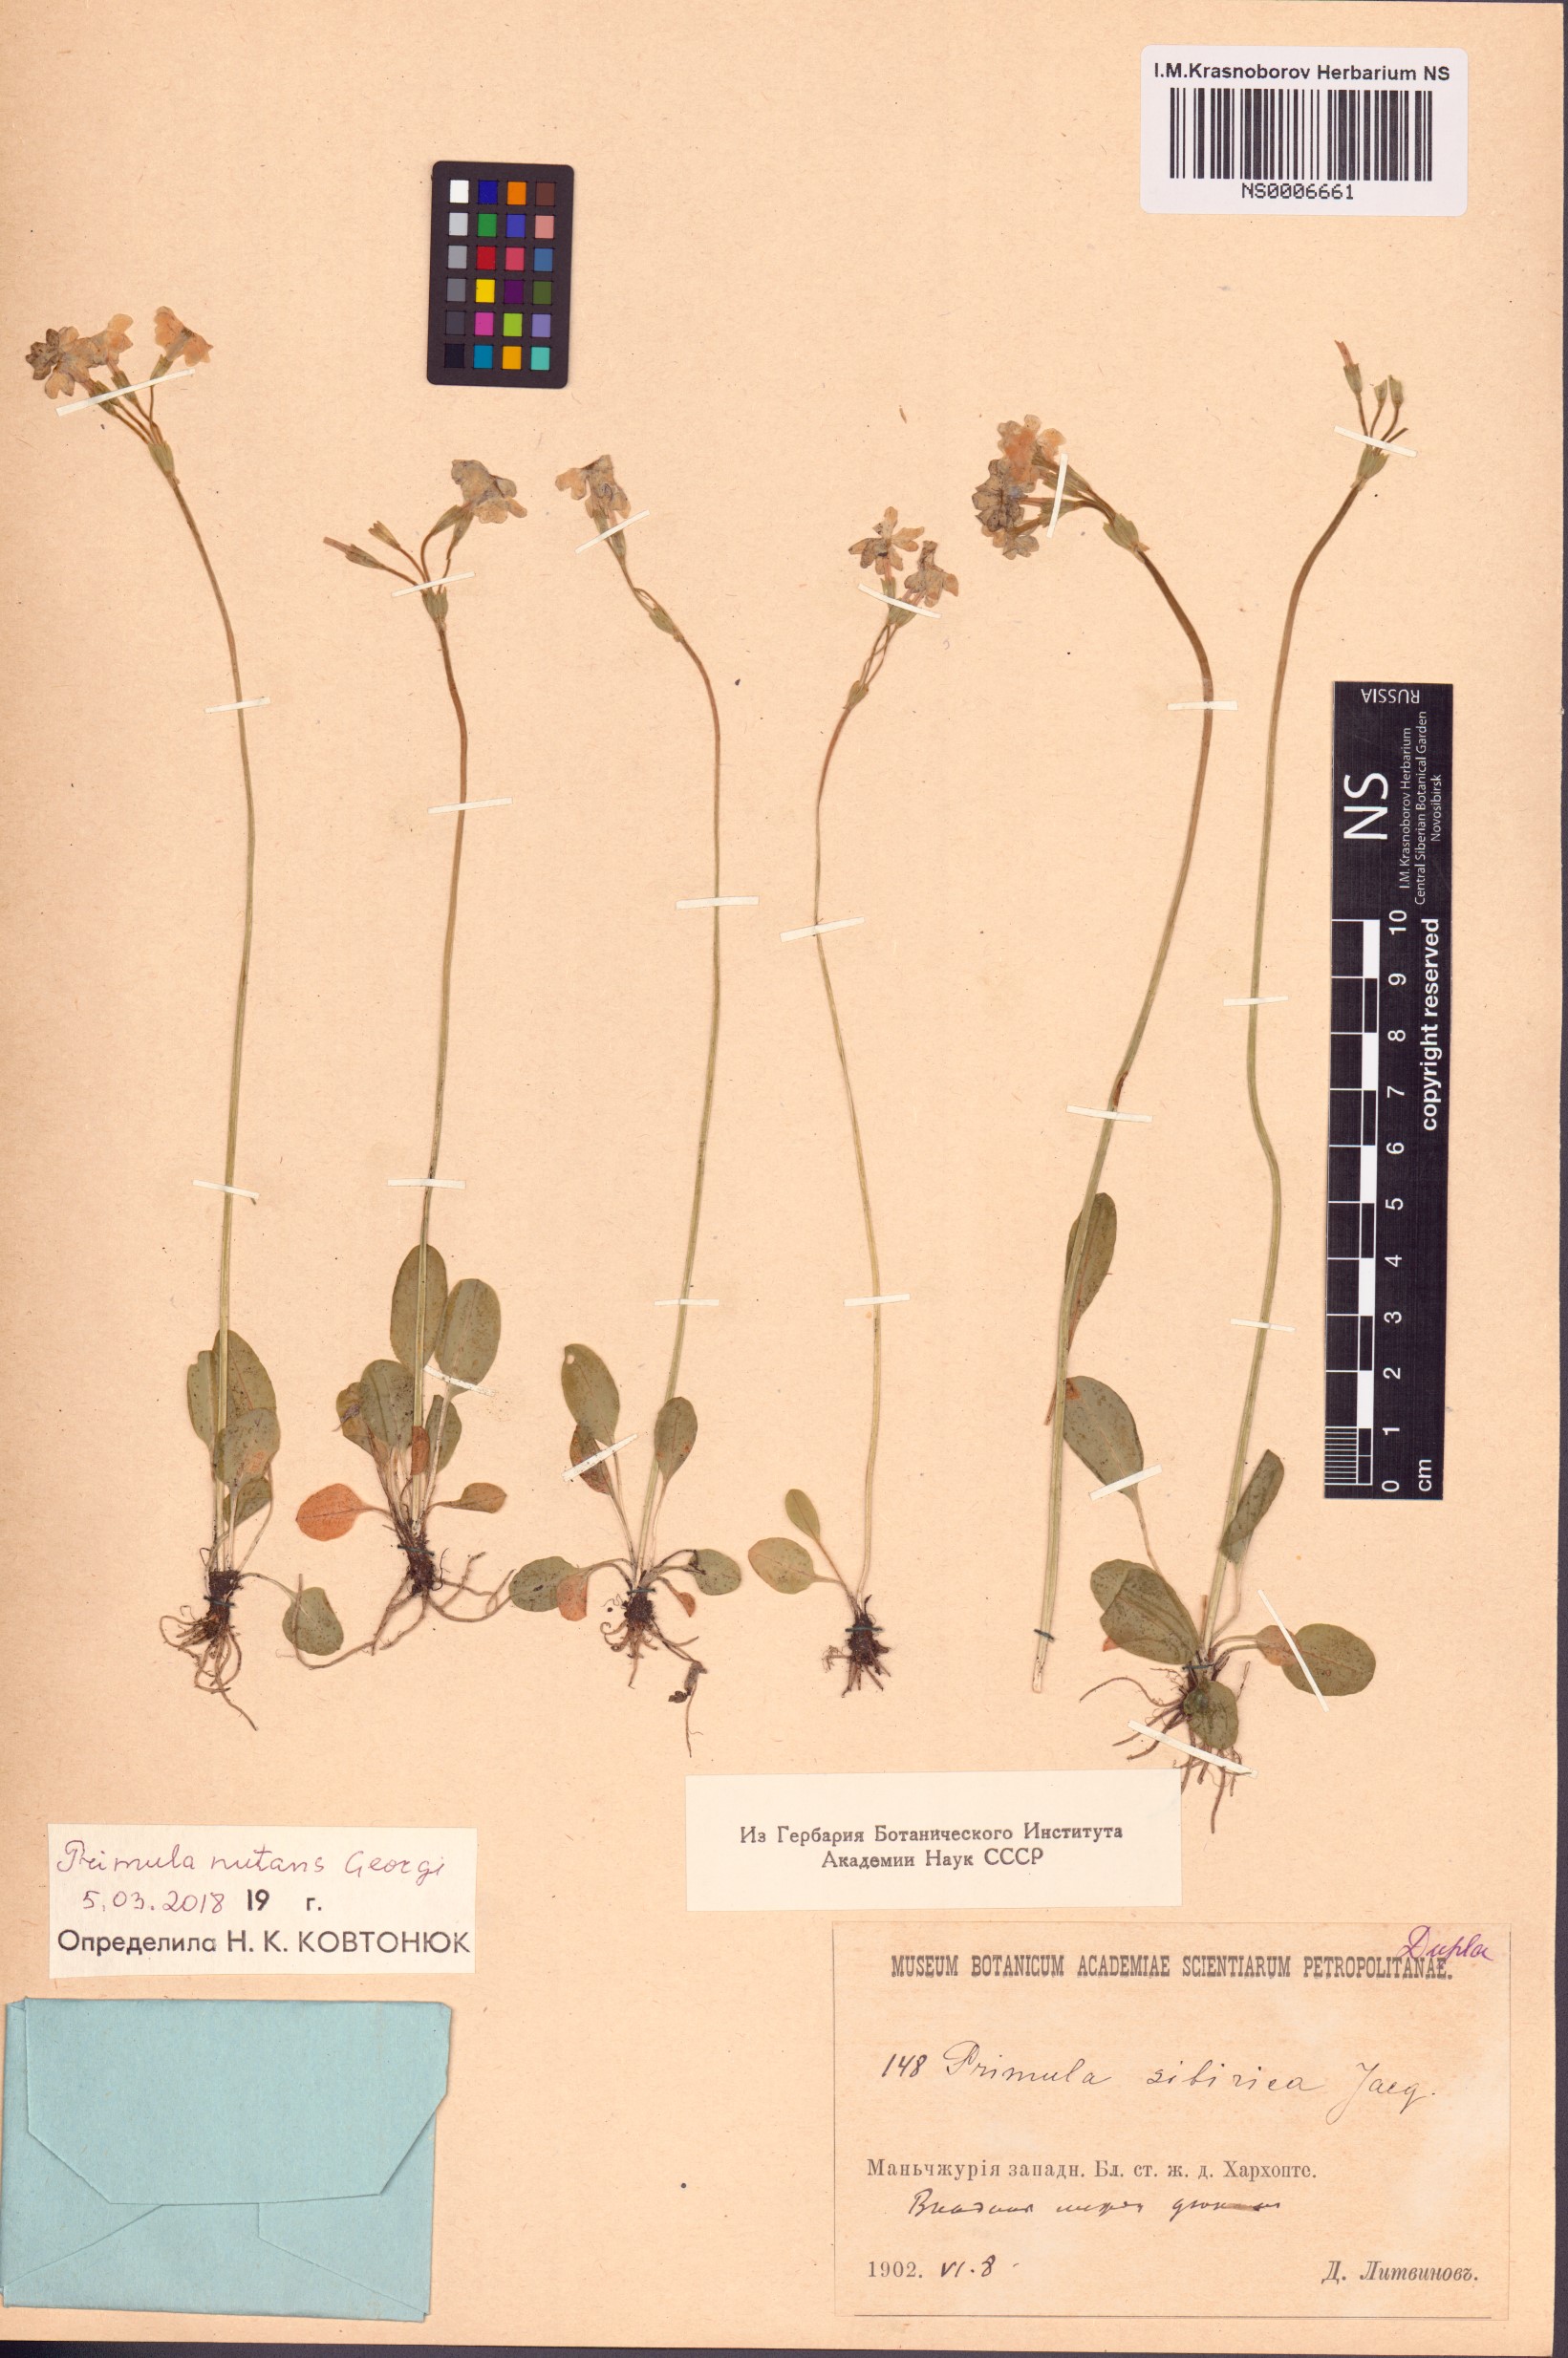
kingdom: Plantae
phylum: Tracheophyta
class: Magnoliopsida
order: Ericales
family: Primulaceae
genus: Primula
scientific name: Primula nutans
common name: Siberian primrose
